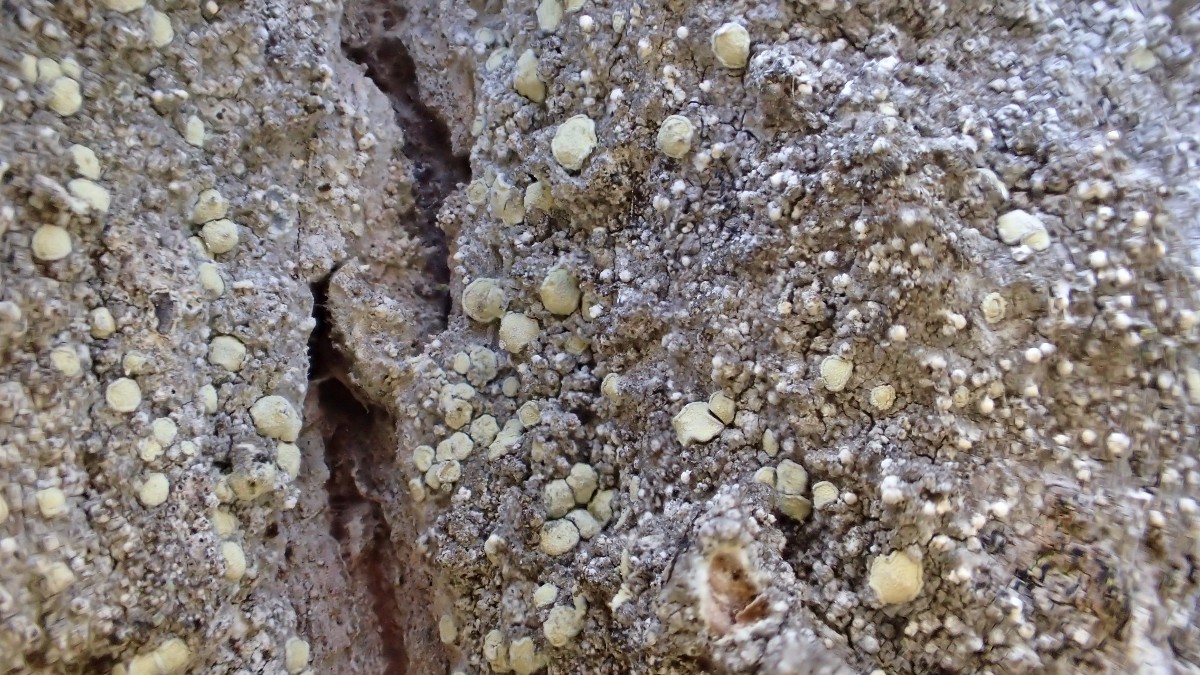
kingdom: Fungi
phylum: Ascomycota
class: Arthoniomycetes
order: Arthoniales
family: Roccellaceae
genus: Lecanactis
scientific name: Lecanactis abietina
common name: grå dugskivelav
